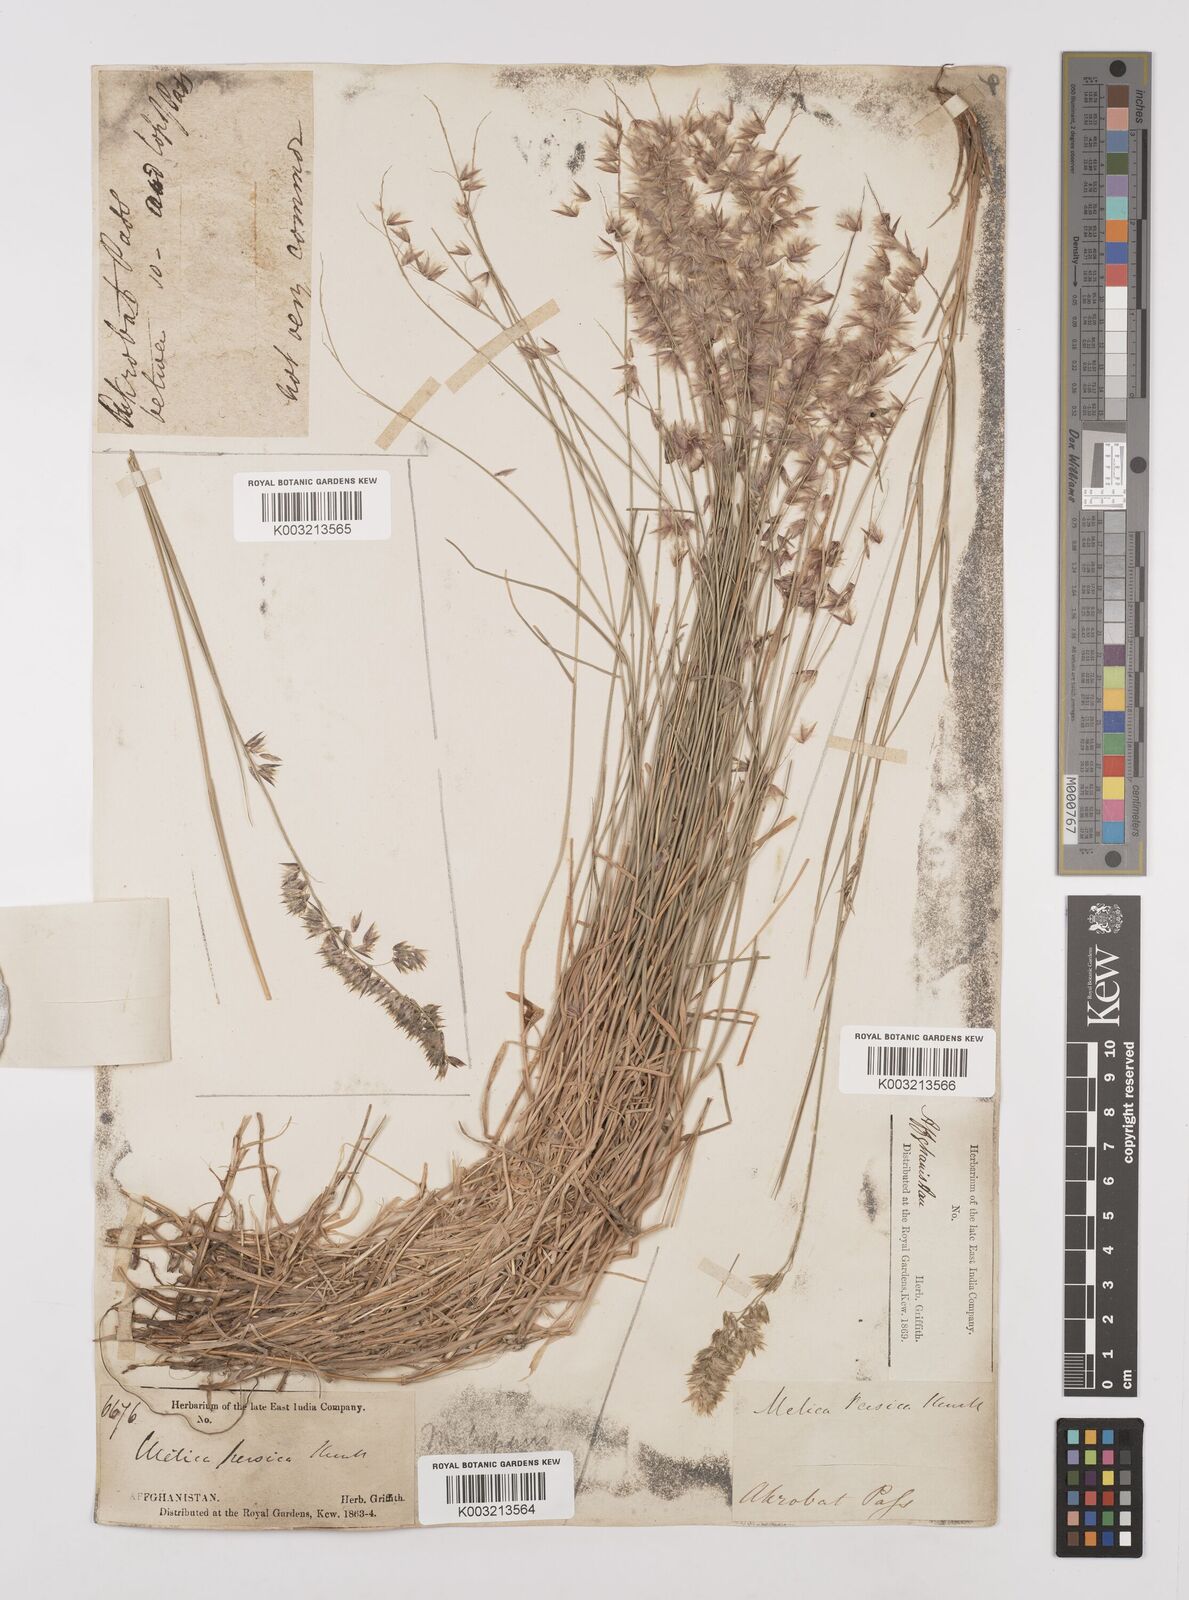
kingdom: Plantae
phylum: Tracheophyta
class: Liliopsida
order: Poales
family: Poaceae
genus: Melica
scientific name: Melica persica
